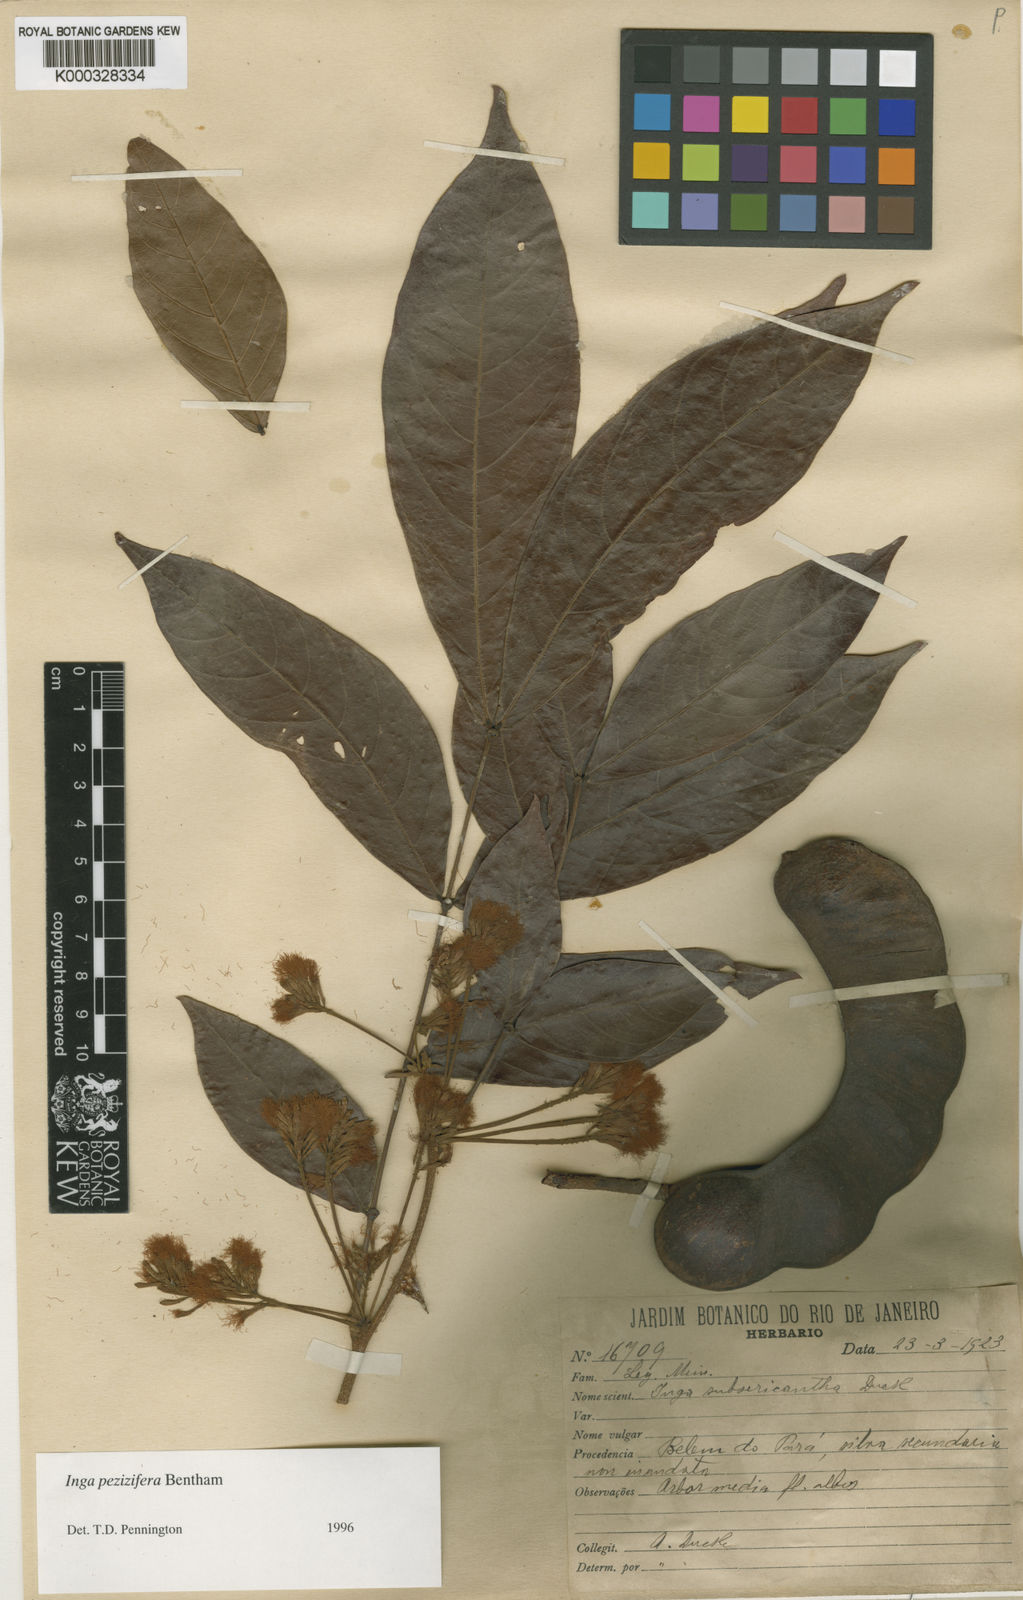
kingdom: Plantae
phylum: Tracheophyta
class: Magnoliopsida
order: Fabales
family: Fabaceae
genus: Inga
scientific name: Inga pezizifera
